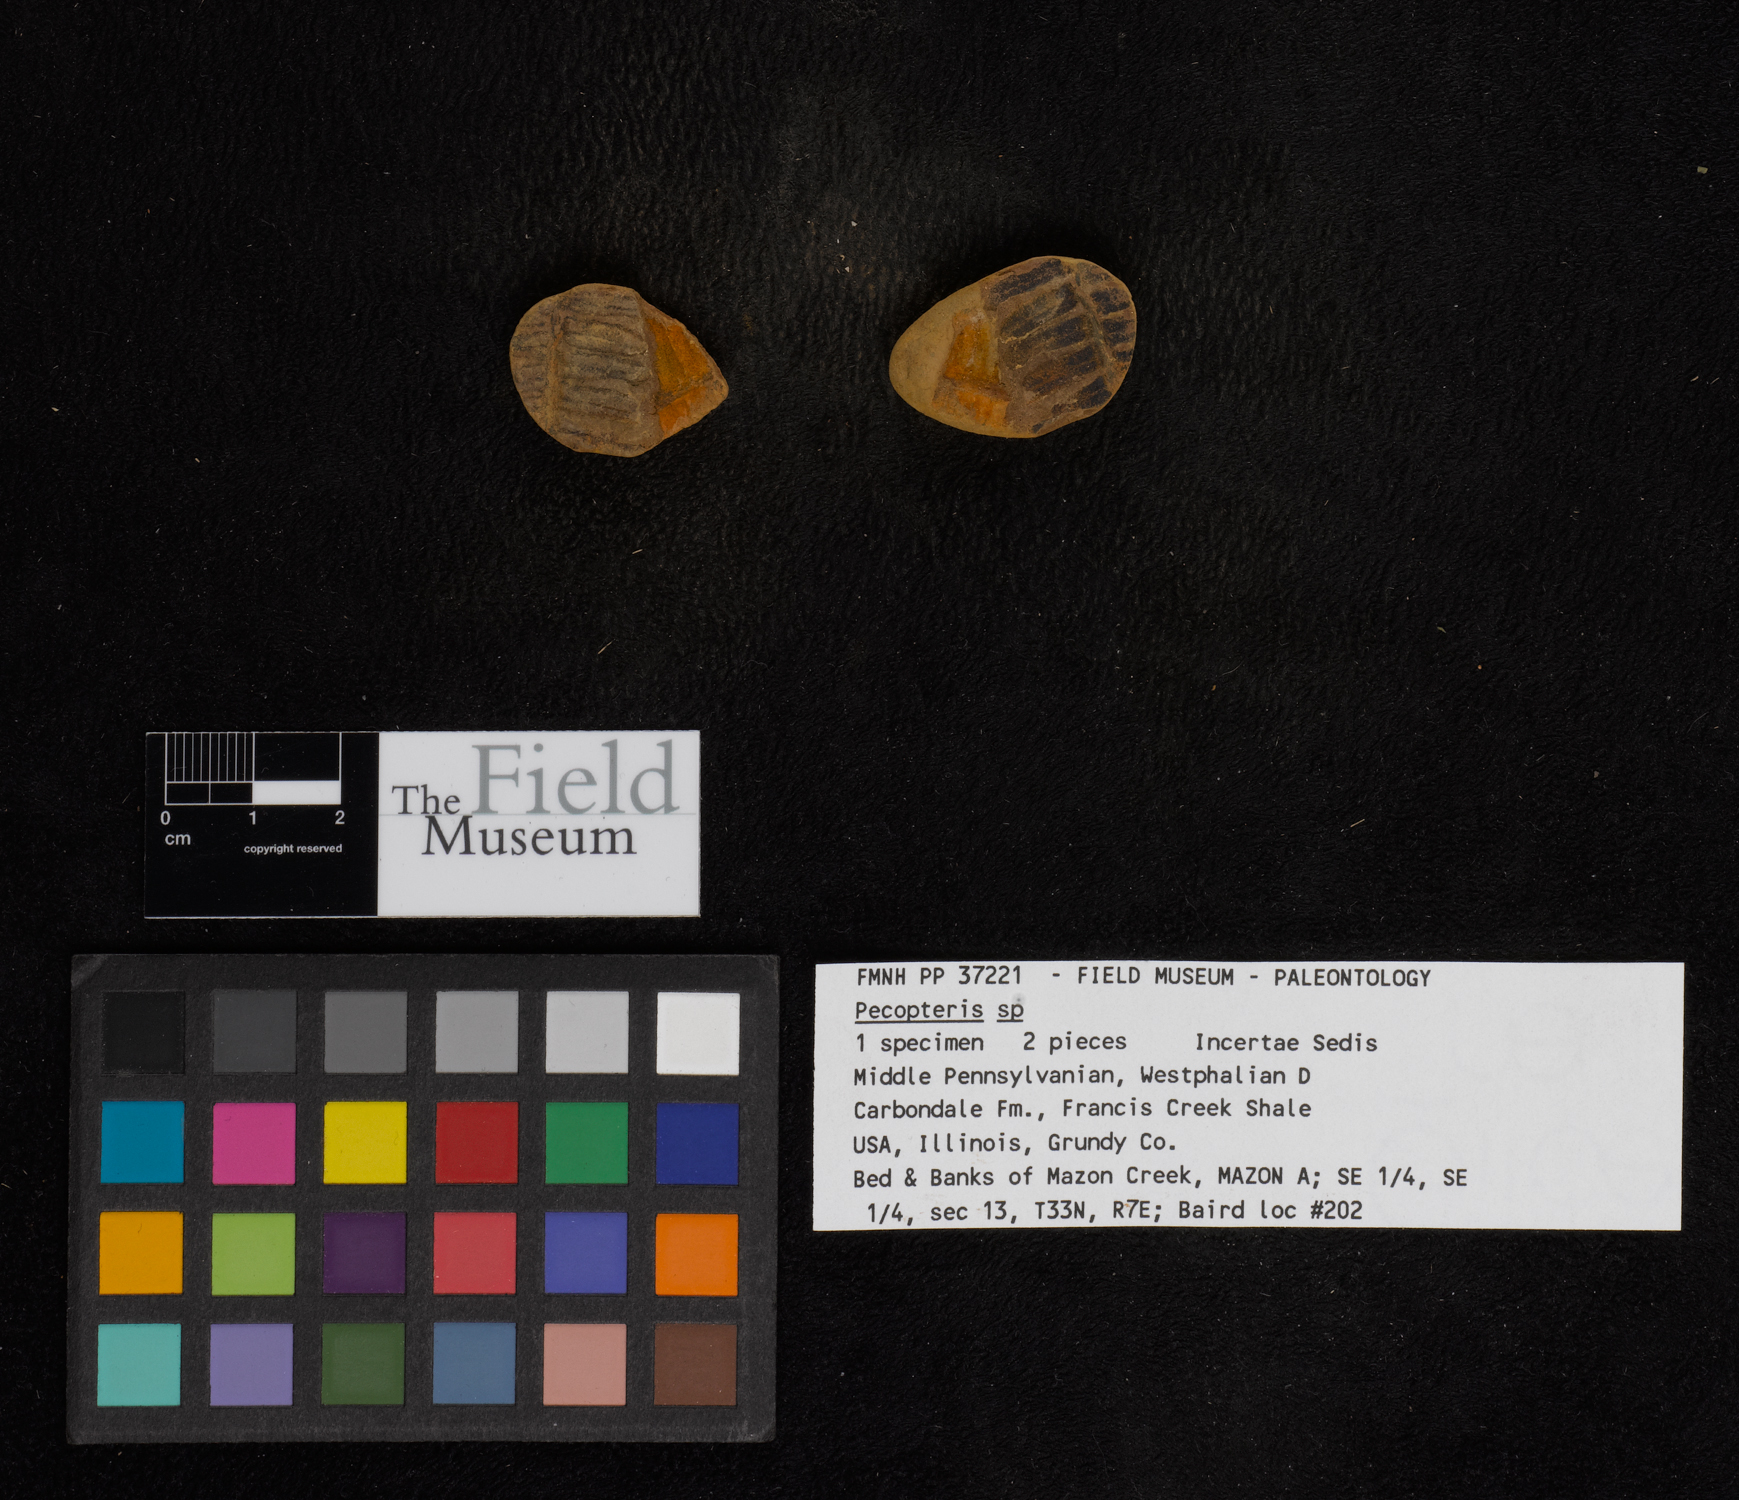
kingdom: Plantae
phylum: Tracheophyta
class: Polypodiopsida
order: Marattiales
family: Asterothecaceae
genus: Pecopteris
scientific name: Pecopteris
